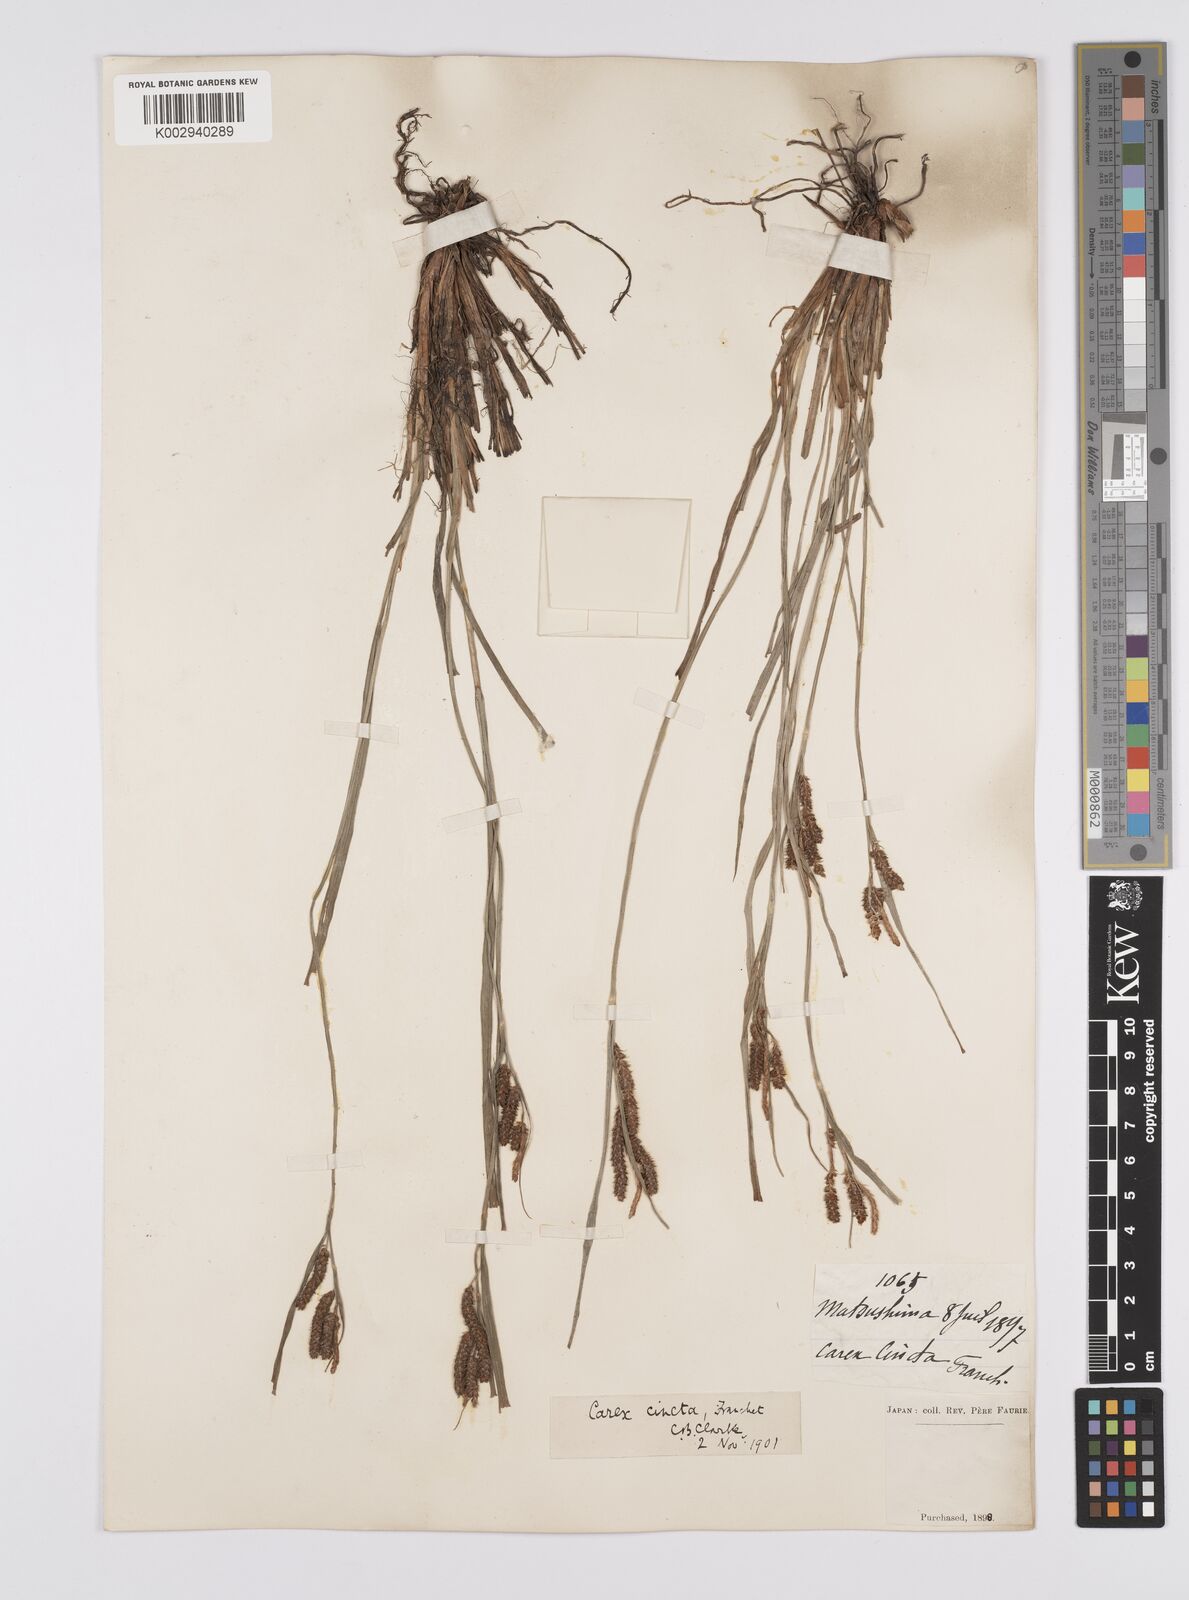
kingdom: Plantae
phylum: Tracheophyta
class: Liliopsida
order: Poales
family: Cyperaceae
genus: Carex
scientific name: Carex phacota
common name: Lakeshore sedge
